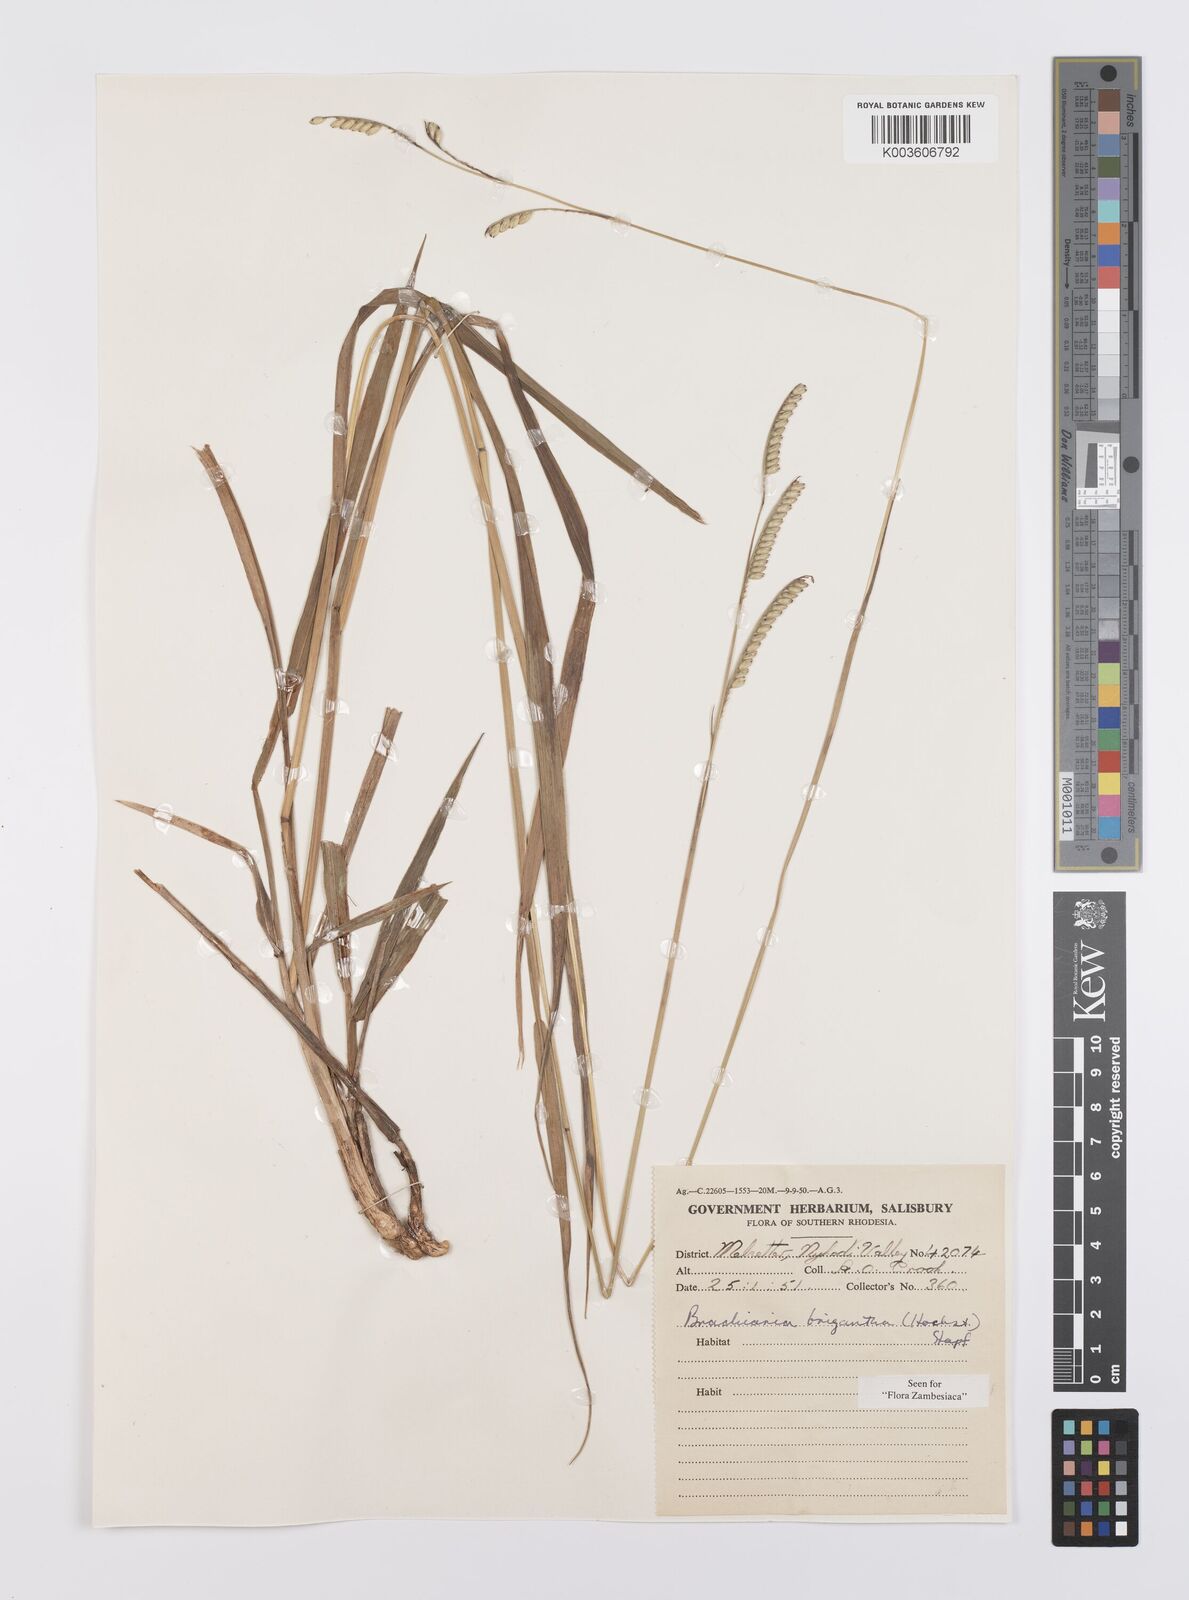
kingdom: Plantae
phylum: Tracheophyta
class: Liliopsida
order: Poales
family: Poaceae
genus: Urochloa
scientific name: Urochloa brizantha
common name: Palisade signalgrass
